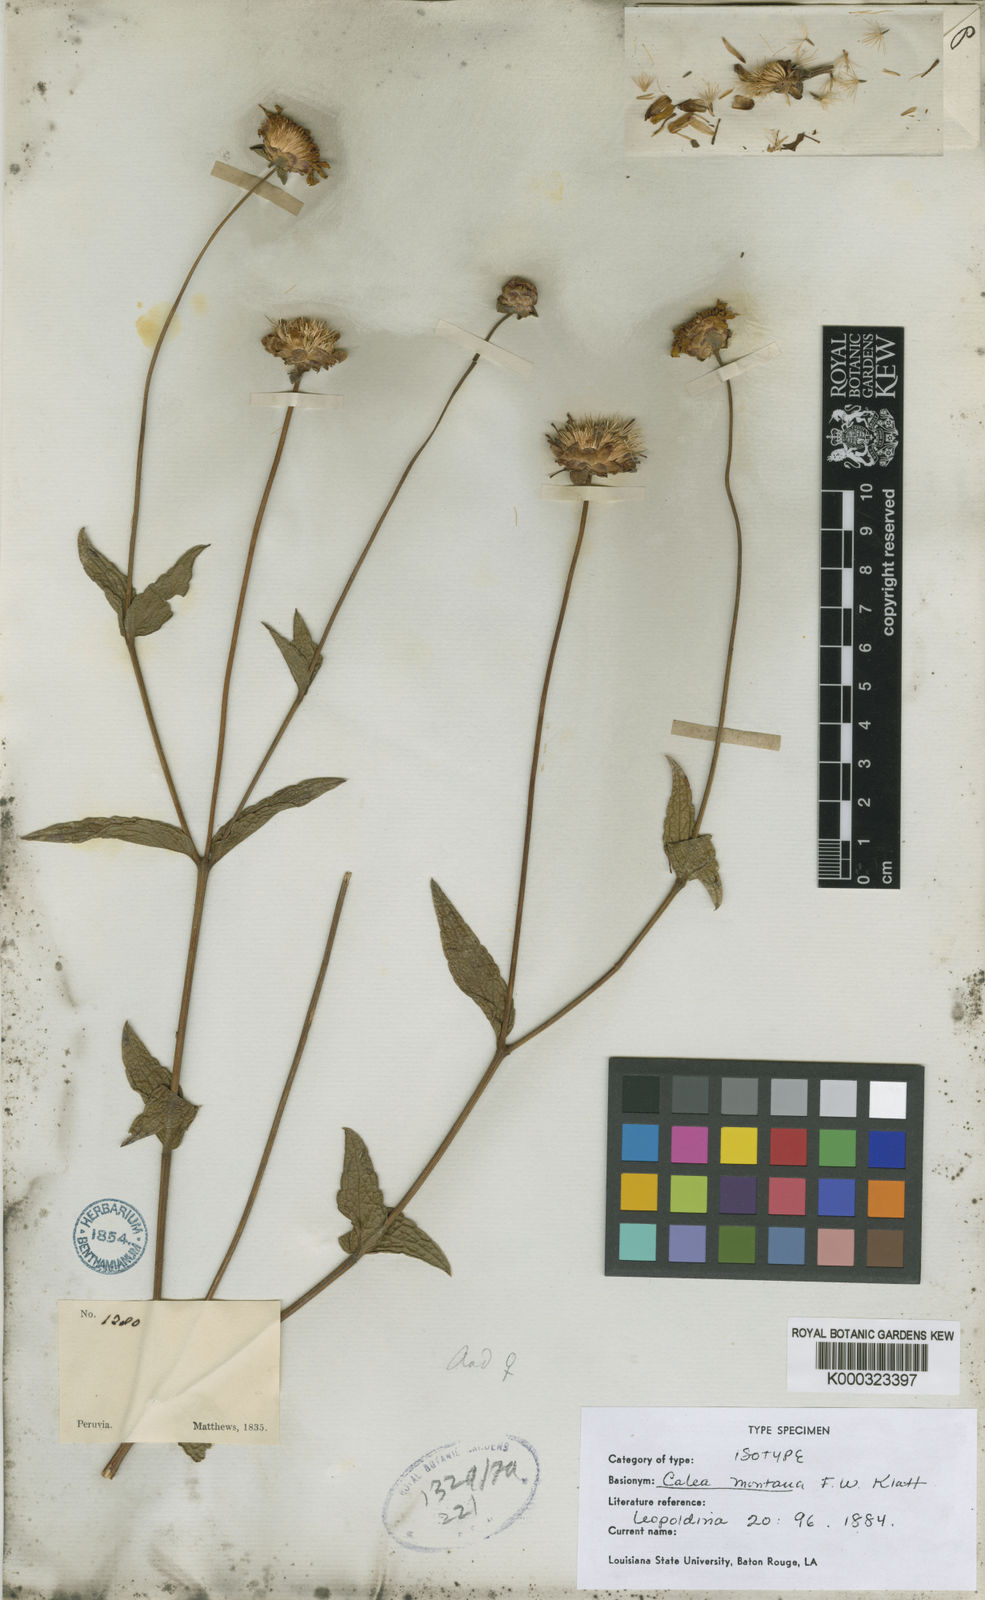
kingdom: Plantae
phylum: Tracheophyta
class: Magnoliopsida
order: Asterales
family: Asteraceae
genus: Calea
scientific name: Calea montana
